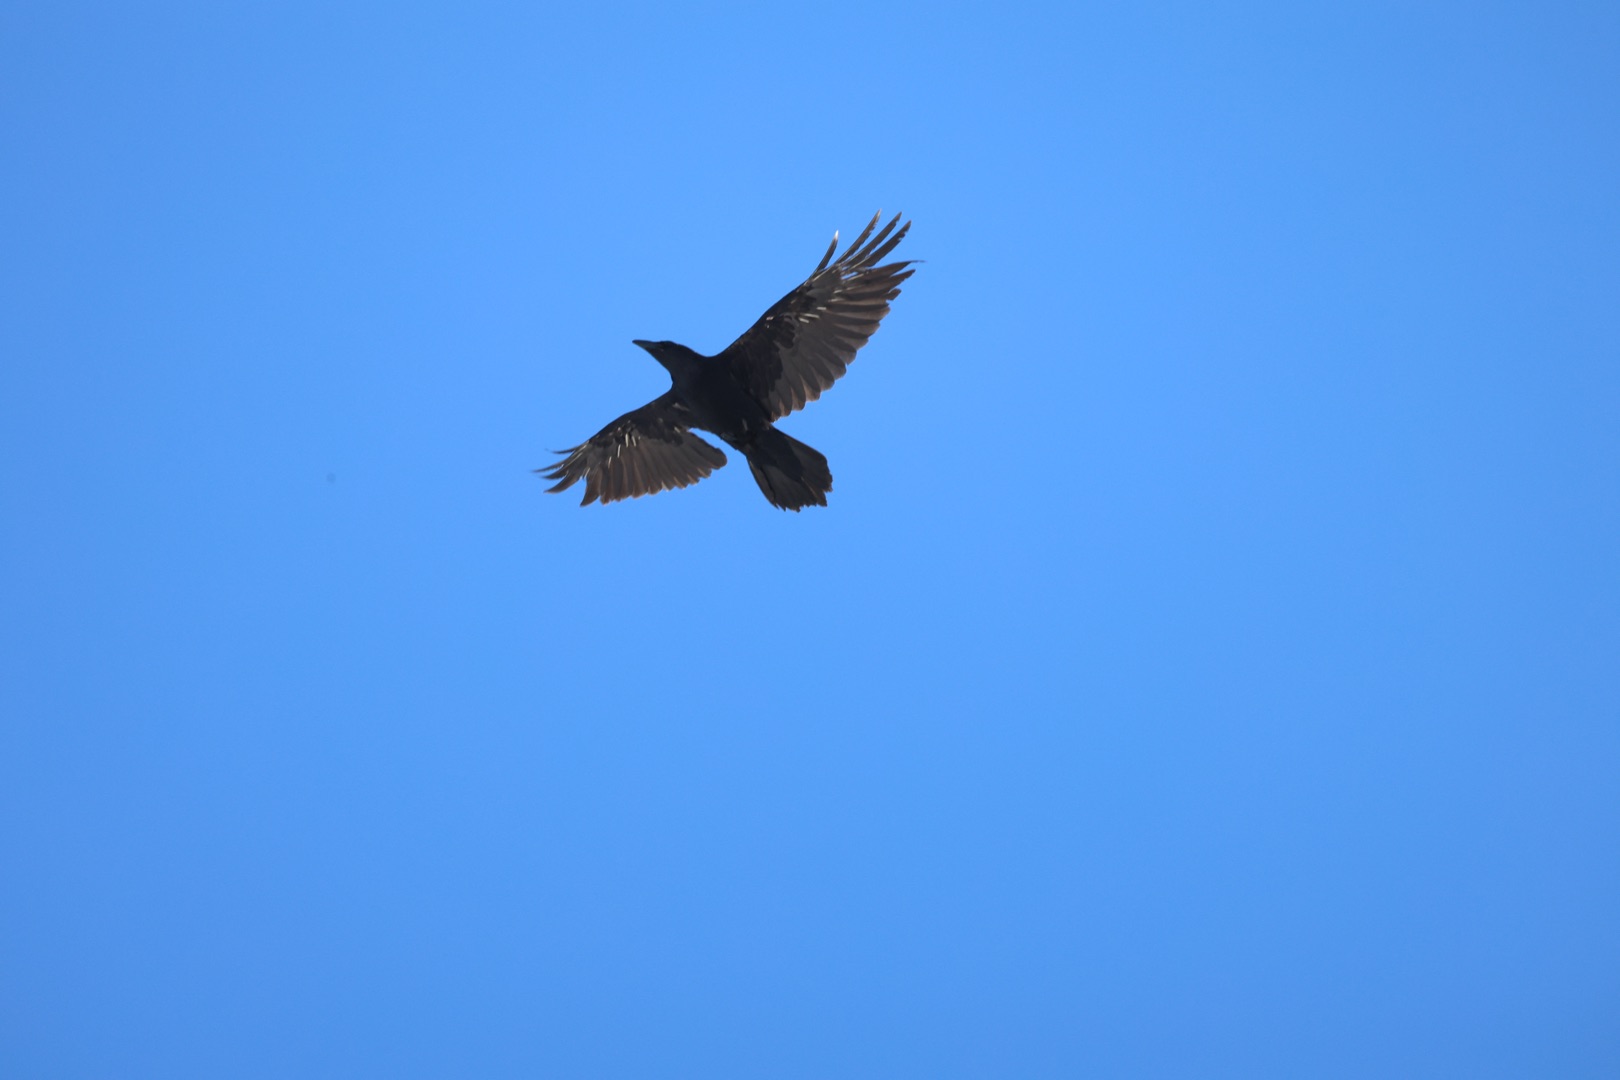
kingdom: Animalia
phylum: Chordata
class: Aves
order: Passeriformes
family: Corvidae
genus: Corvus
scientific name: Corvus corax
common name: Ravn
